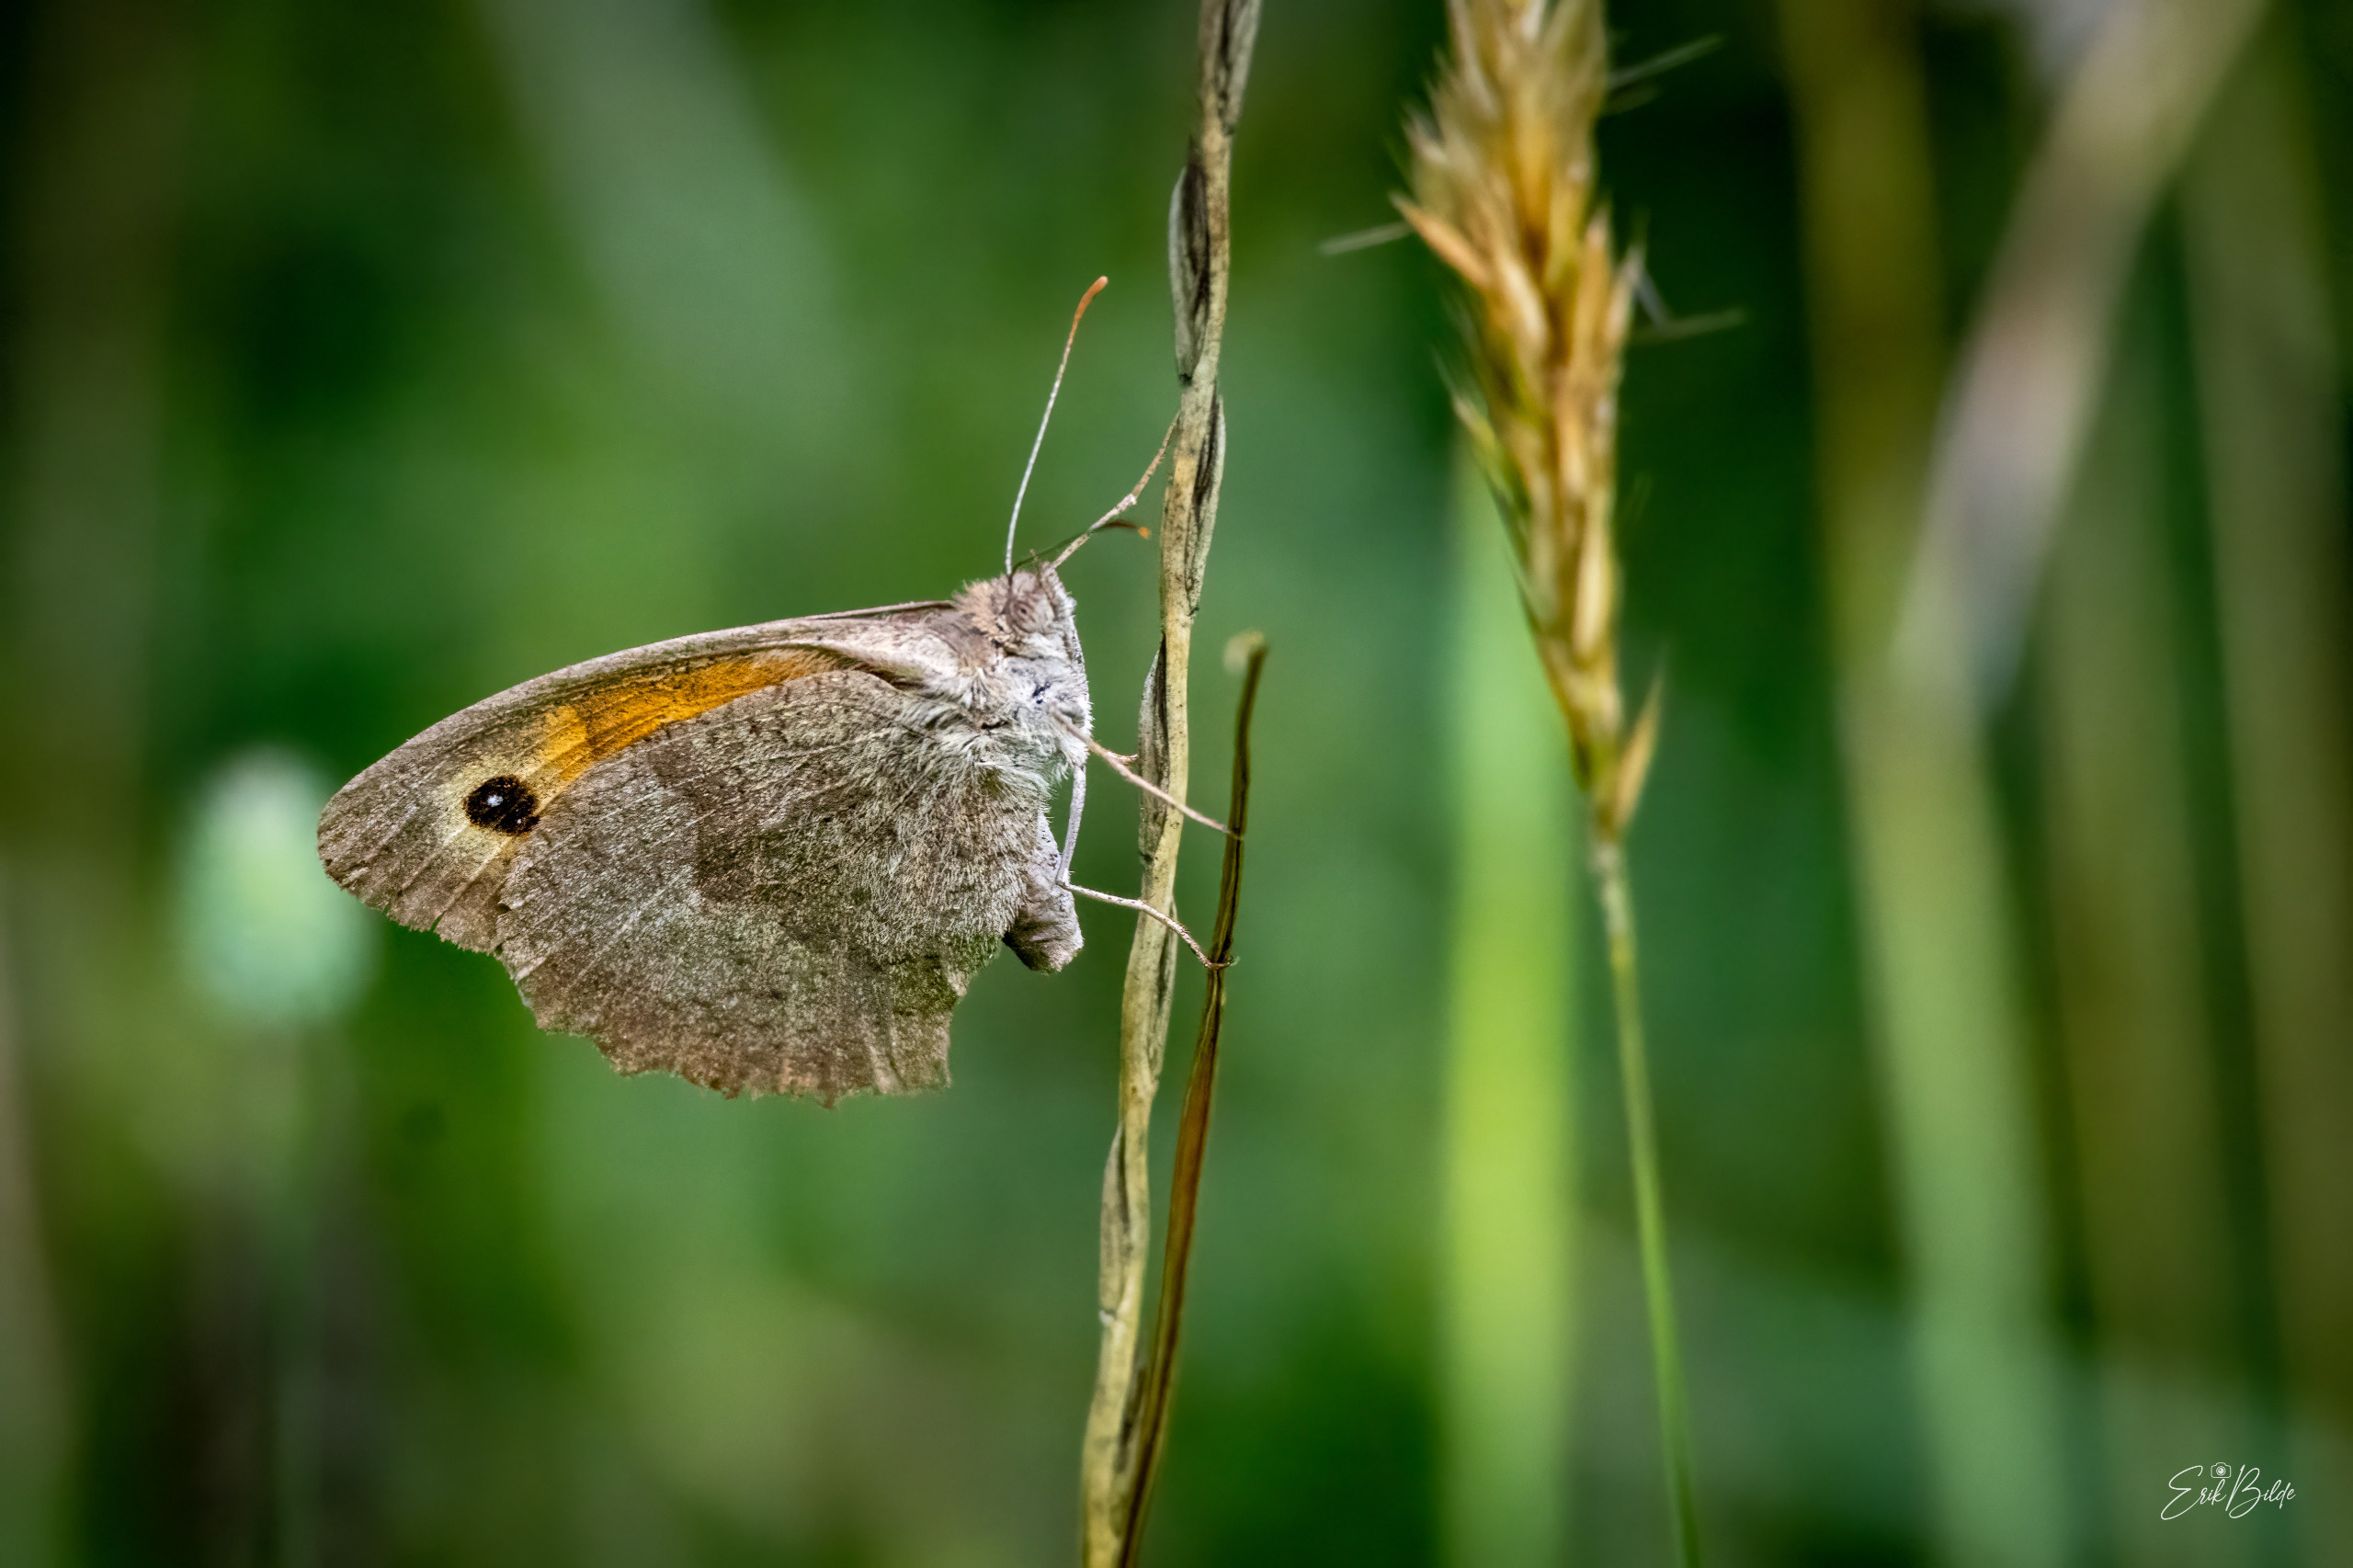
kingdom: Animalia
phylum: Arthropoda
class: Insecta
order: Lepidoptera
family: Nymphalidae
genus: Maniola
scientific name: Maniola jurtina
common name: Græsrandøje
